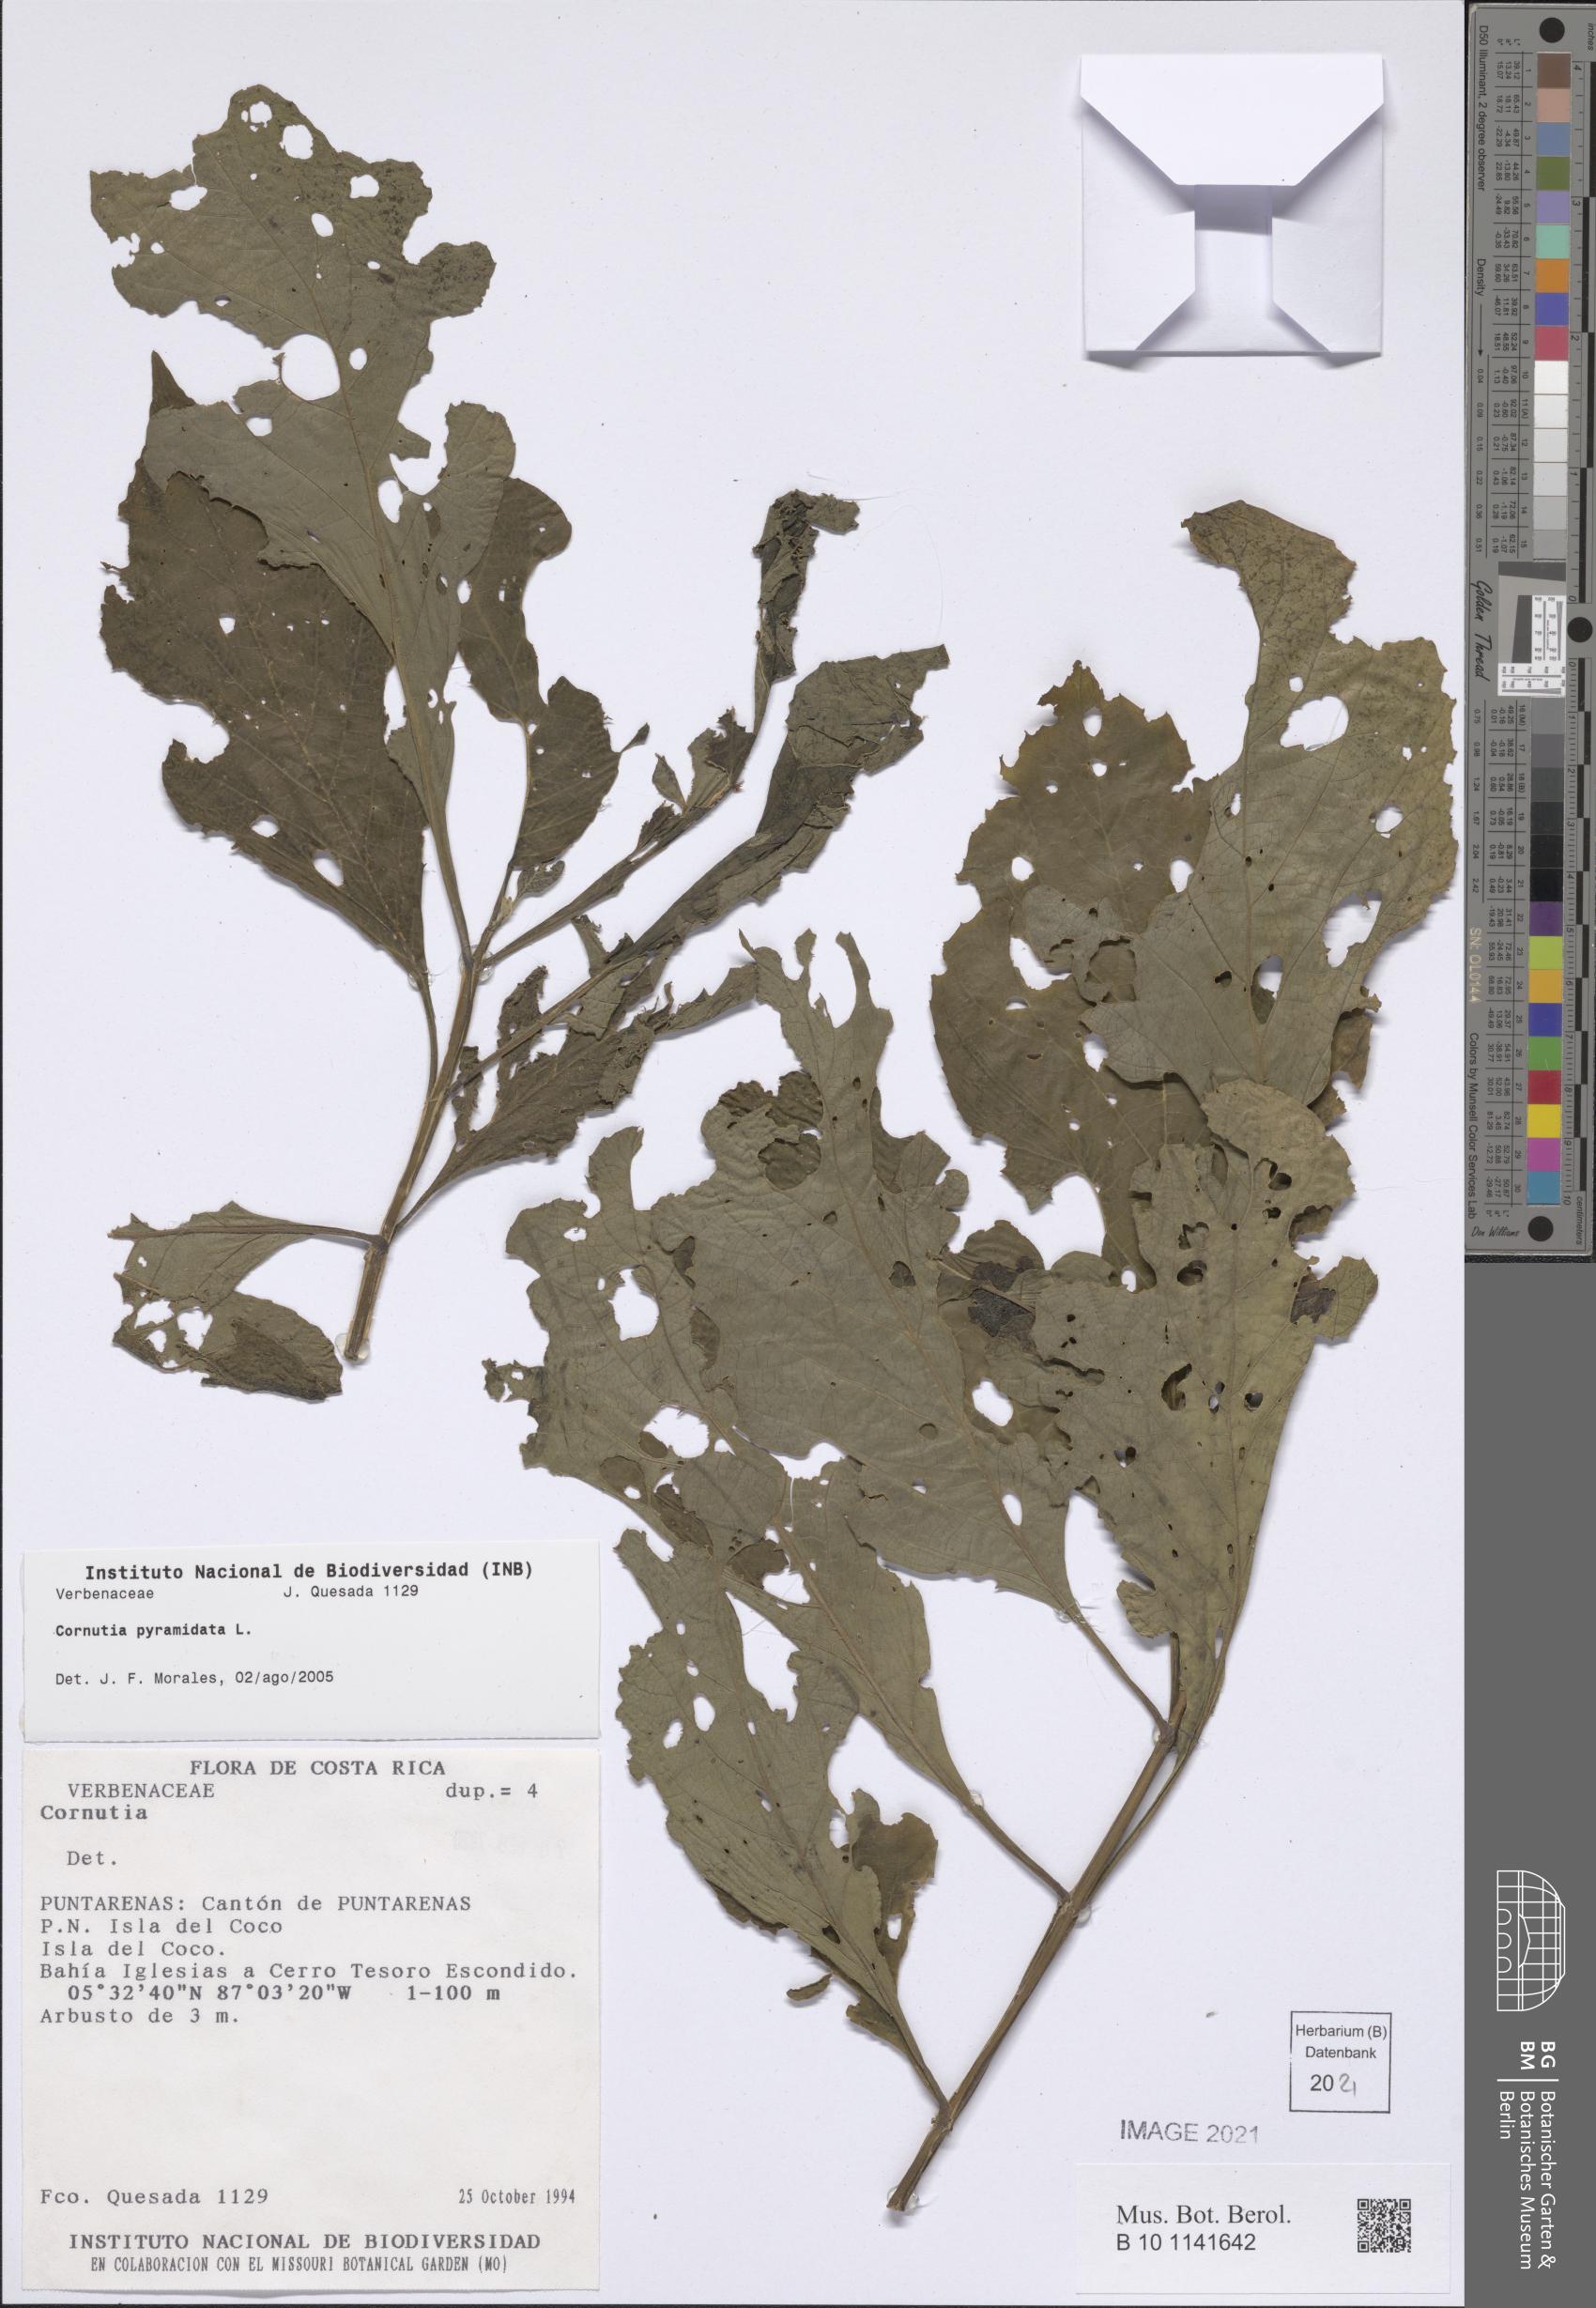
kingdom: Plantae
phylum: Tracheophyta
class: Magnoliopsida
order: Lamiales
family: Lamiaceae
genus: Cornutia
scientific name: Cornutia pyramidata
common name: Azulejo
